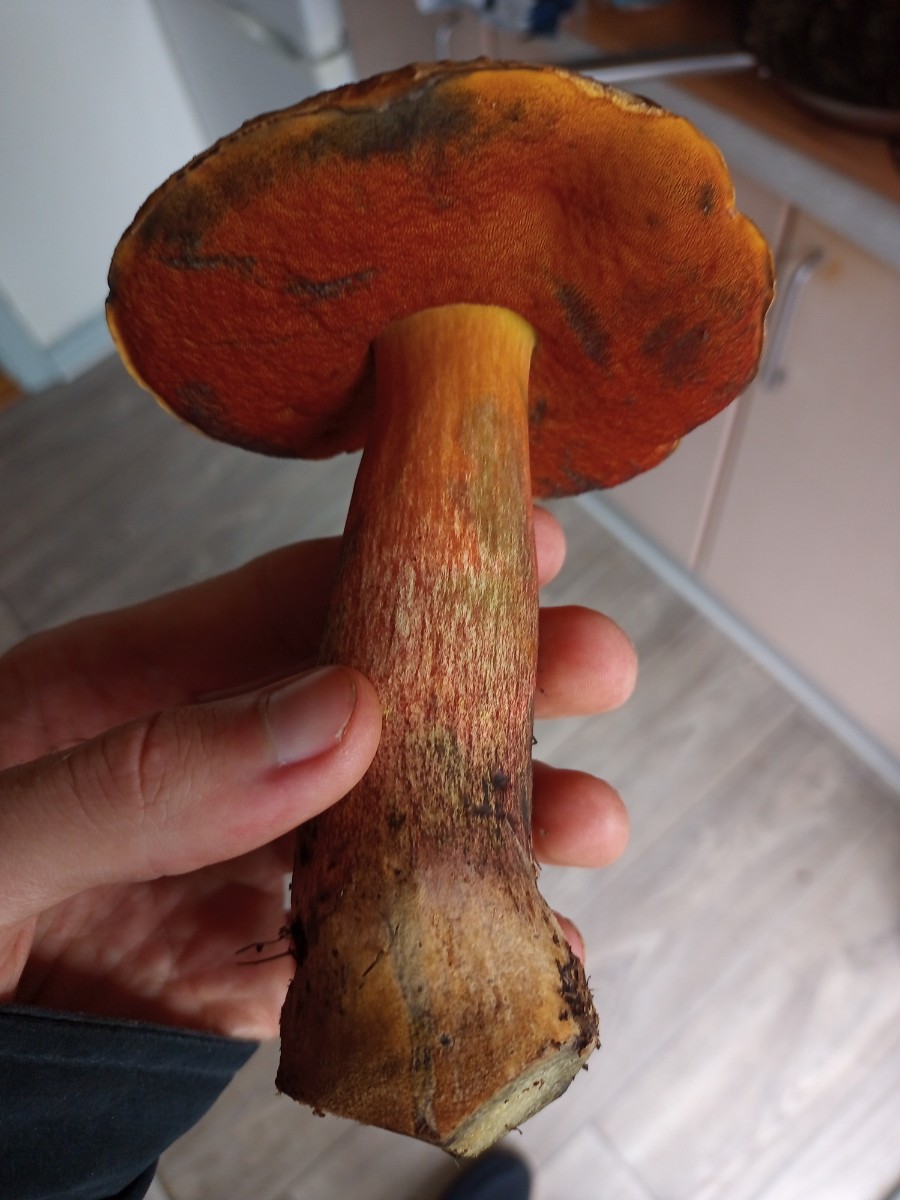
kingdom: Fungi
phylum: Basidiomycota
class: Agaricomycetes
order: Boletales
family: Boletaceae
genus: Neoboletus
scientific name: Neoboletus erythropus
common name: punktstokket indigorørhat
